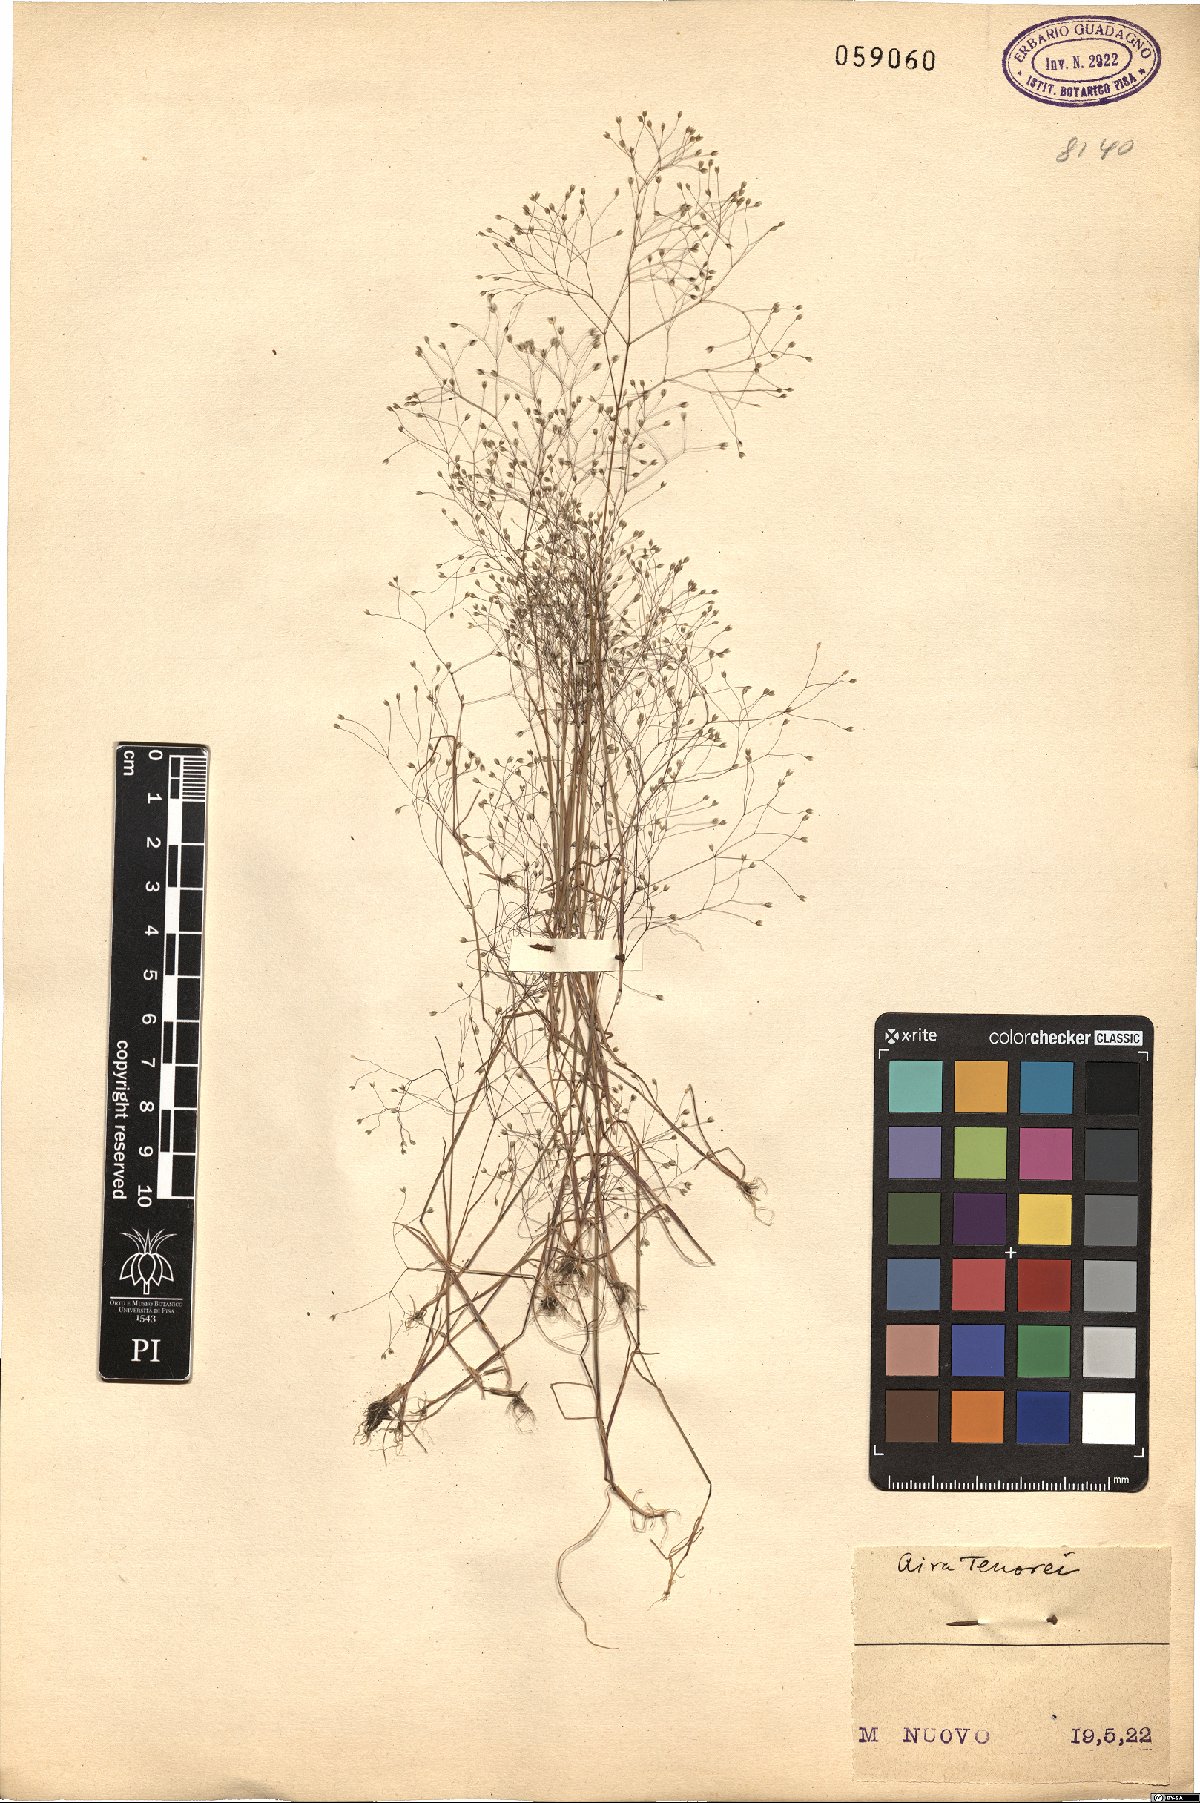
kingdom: Plantae
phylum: Tracheophyta
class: Liliopsida
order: Poales
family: Poaceae
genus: Aira
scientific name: Aira tenorei
